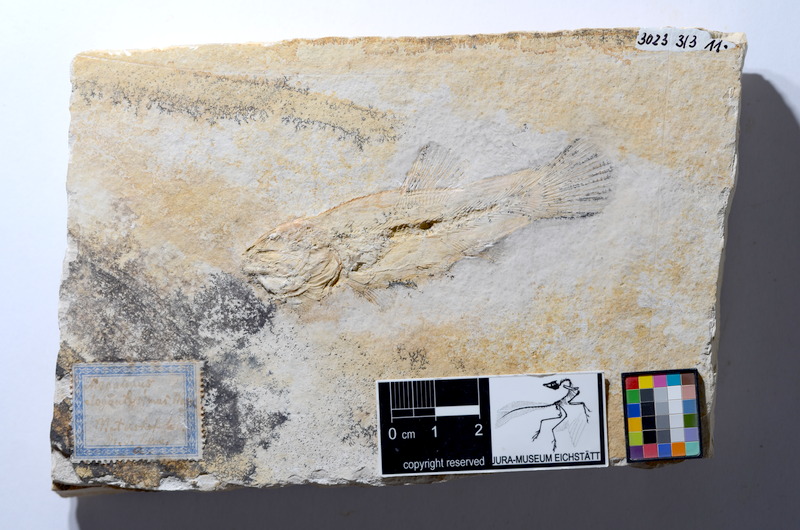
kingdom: Animalia
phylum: Chordata
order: Amiiformes
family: Amiidae
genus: Amiopsis
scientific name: Amiopsis lepidota
